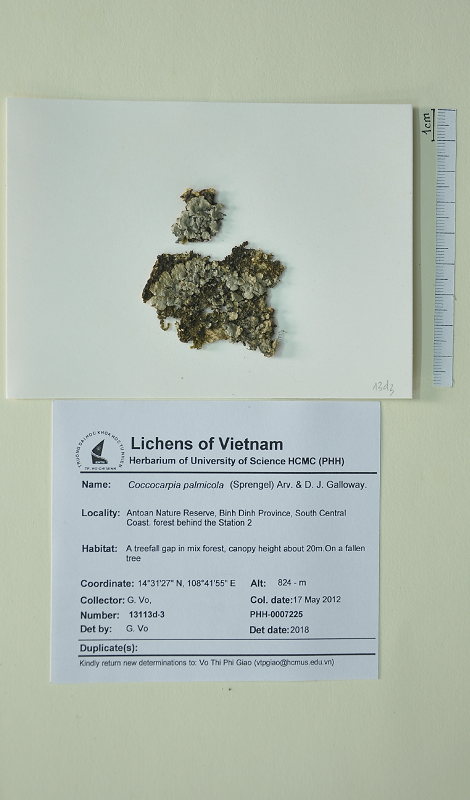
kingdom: Fungi
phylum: Ascomycota
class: Lecanoromycetes
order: Peltigerales
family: Coccocarpiaceae
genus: Coccocarpia
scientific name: Coccocarpia palmicola
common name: Salted shell lichen
